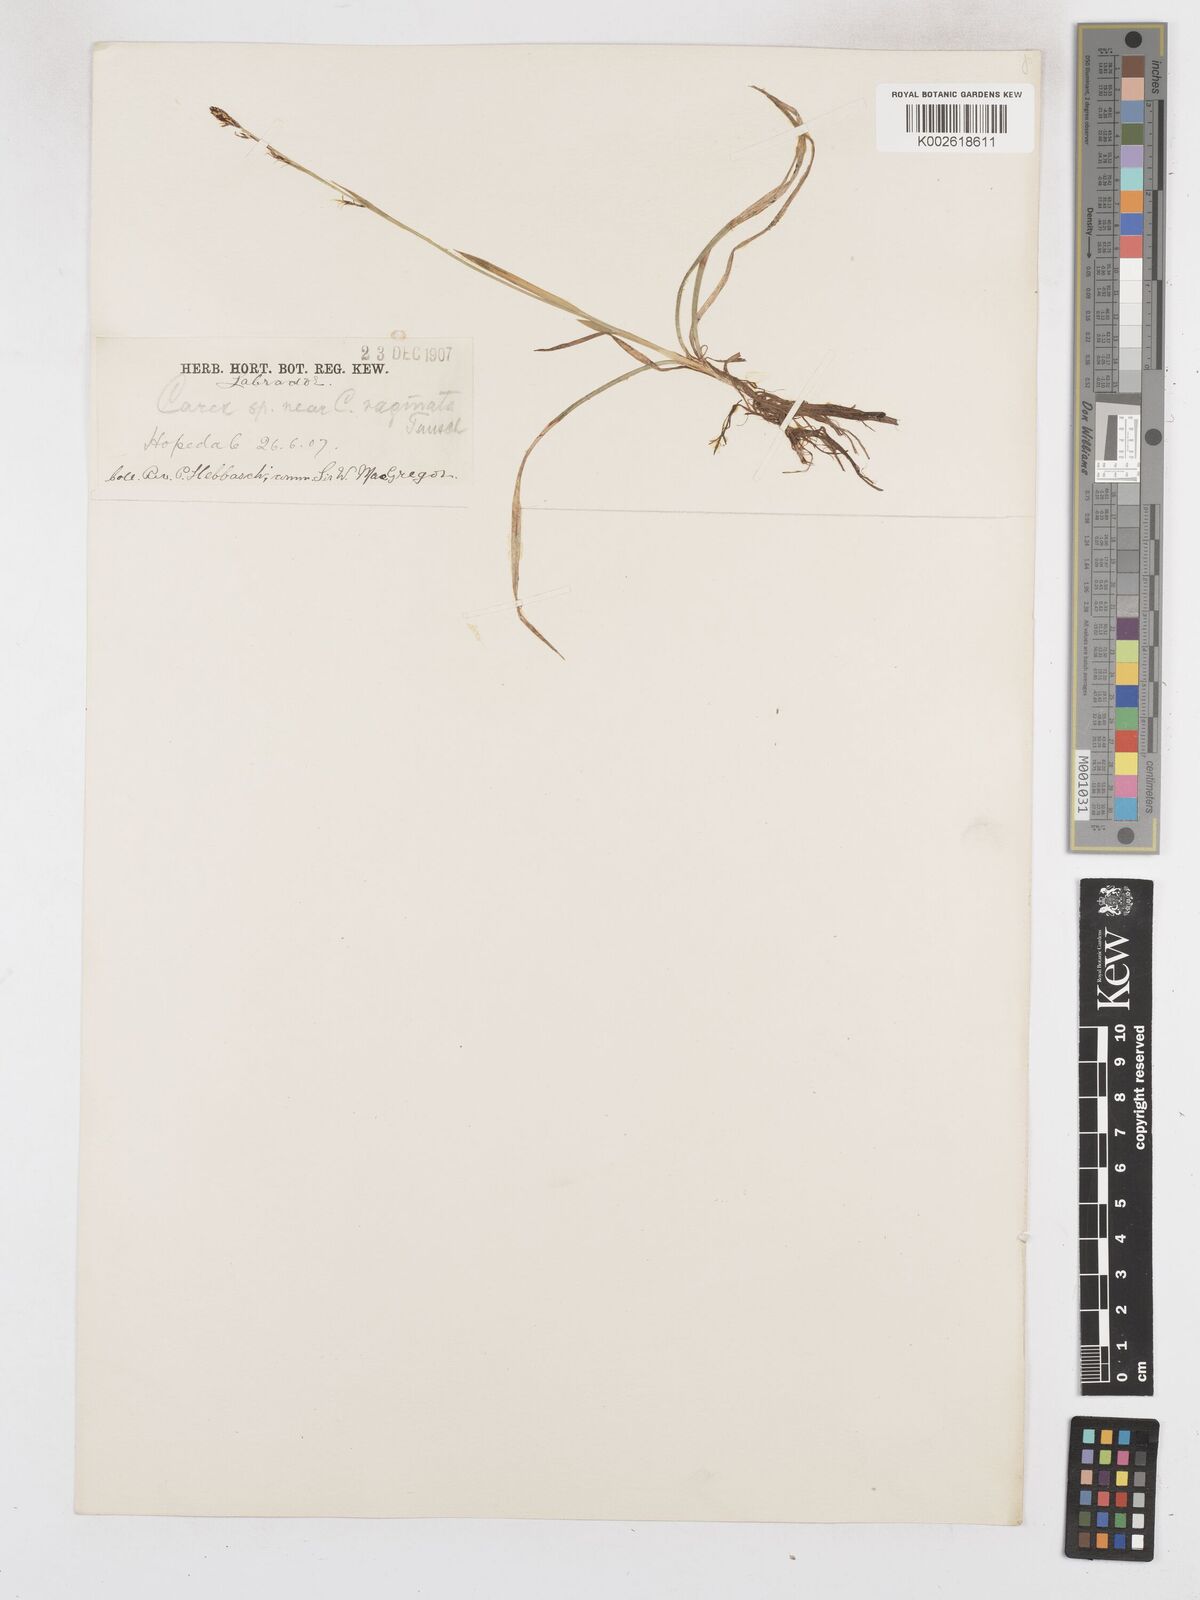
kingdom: Plantae
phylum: Tracheophyta
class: Liliopsida
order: Poales
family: Cyperaceae
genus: Carex
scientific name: Carex vaginata
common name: Sheathed sedge
